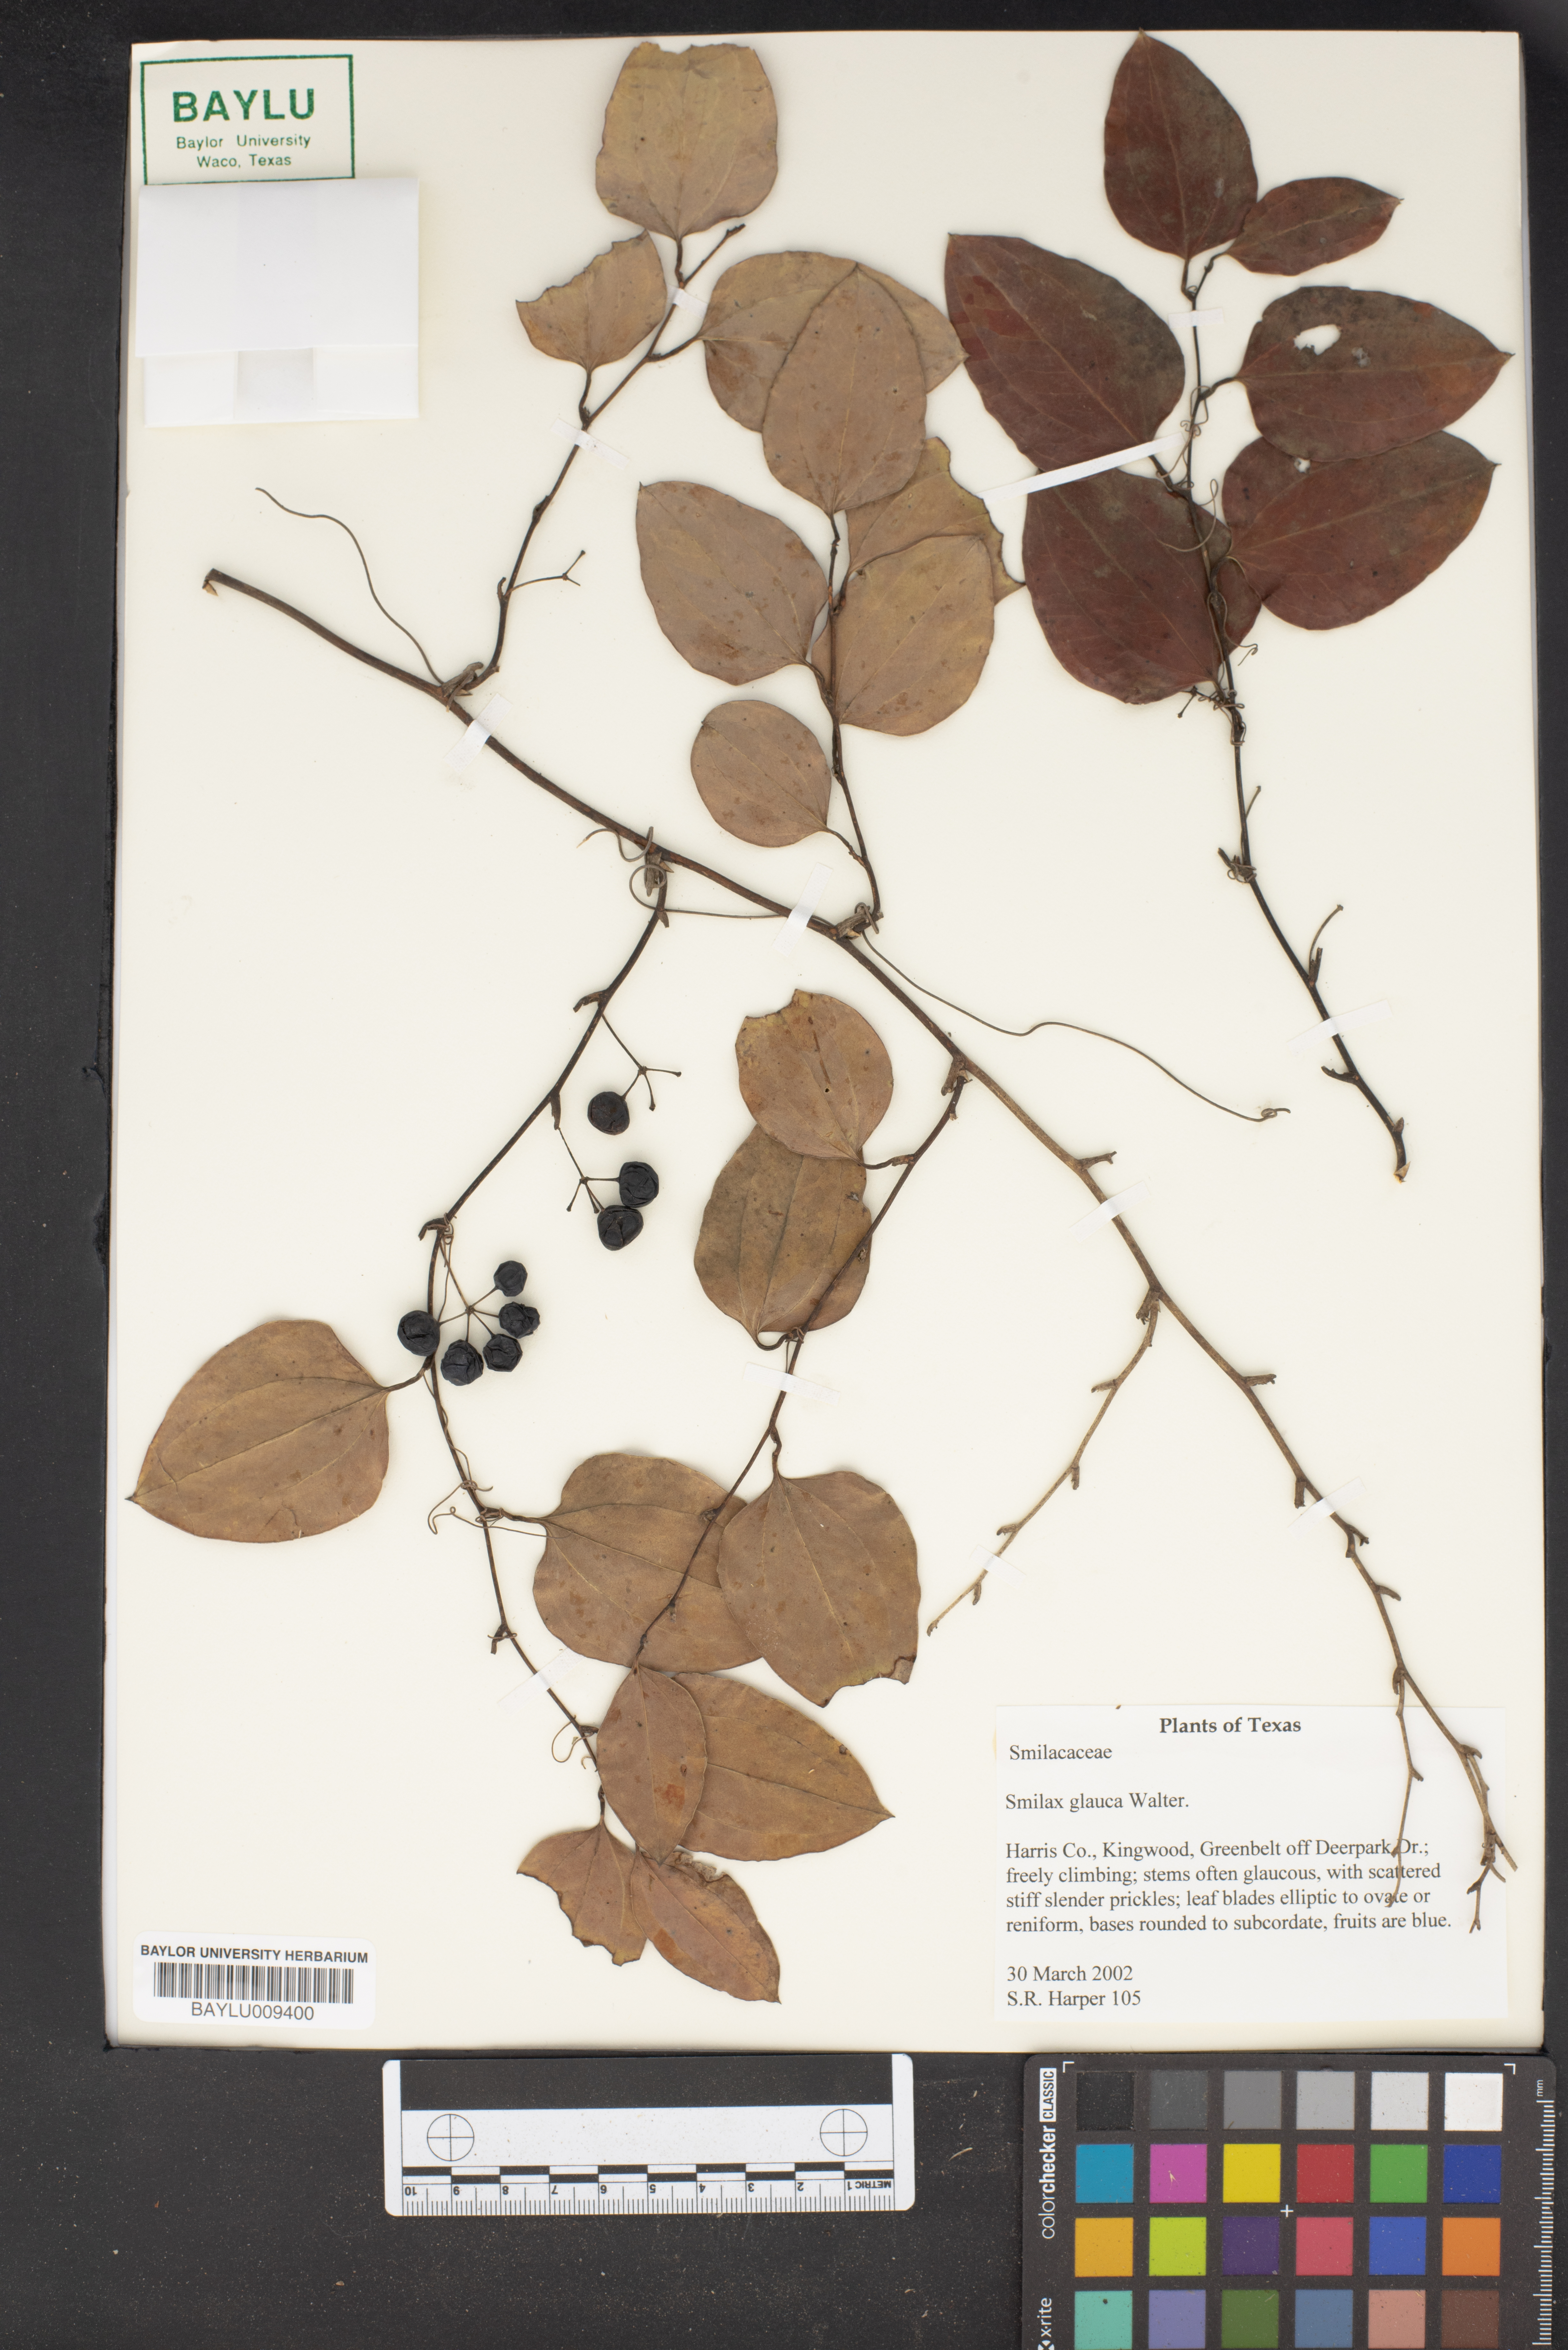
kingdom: Plantae
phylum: Tracheophyta
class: Liliopsida
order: Liliales
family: Smilacaceae
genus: Smilax
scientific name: Smilax glauca
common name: Cat greenbrier
